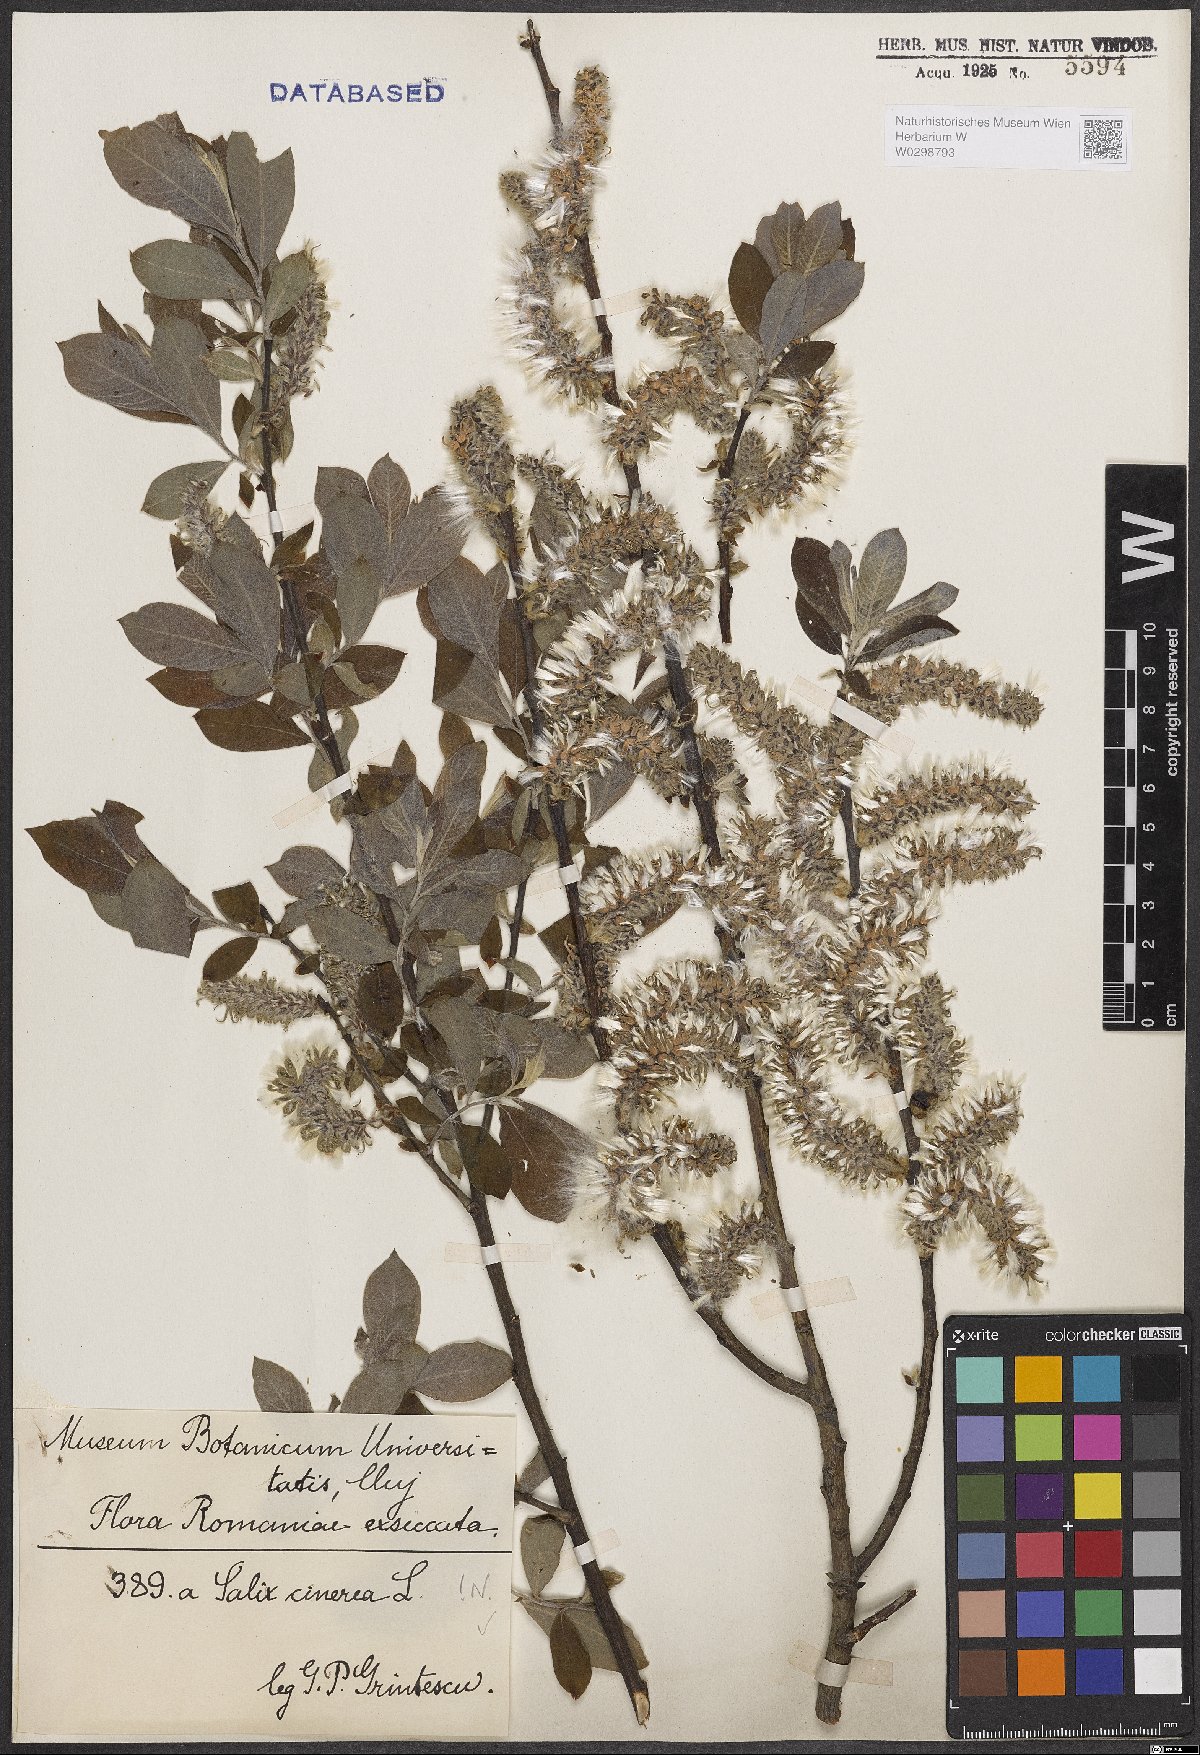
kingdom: Plantae
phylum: Tracheophyta
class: Magnoliopsida
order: Malpighiales
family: Salicaceae
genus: Salix
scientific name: Salix cinerea
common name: Common sallow
